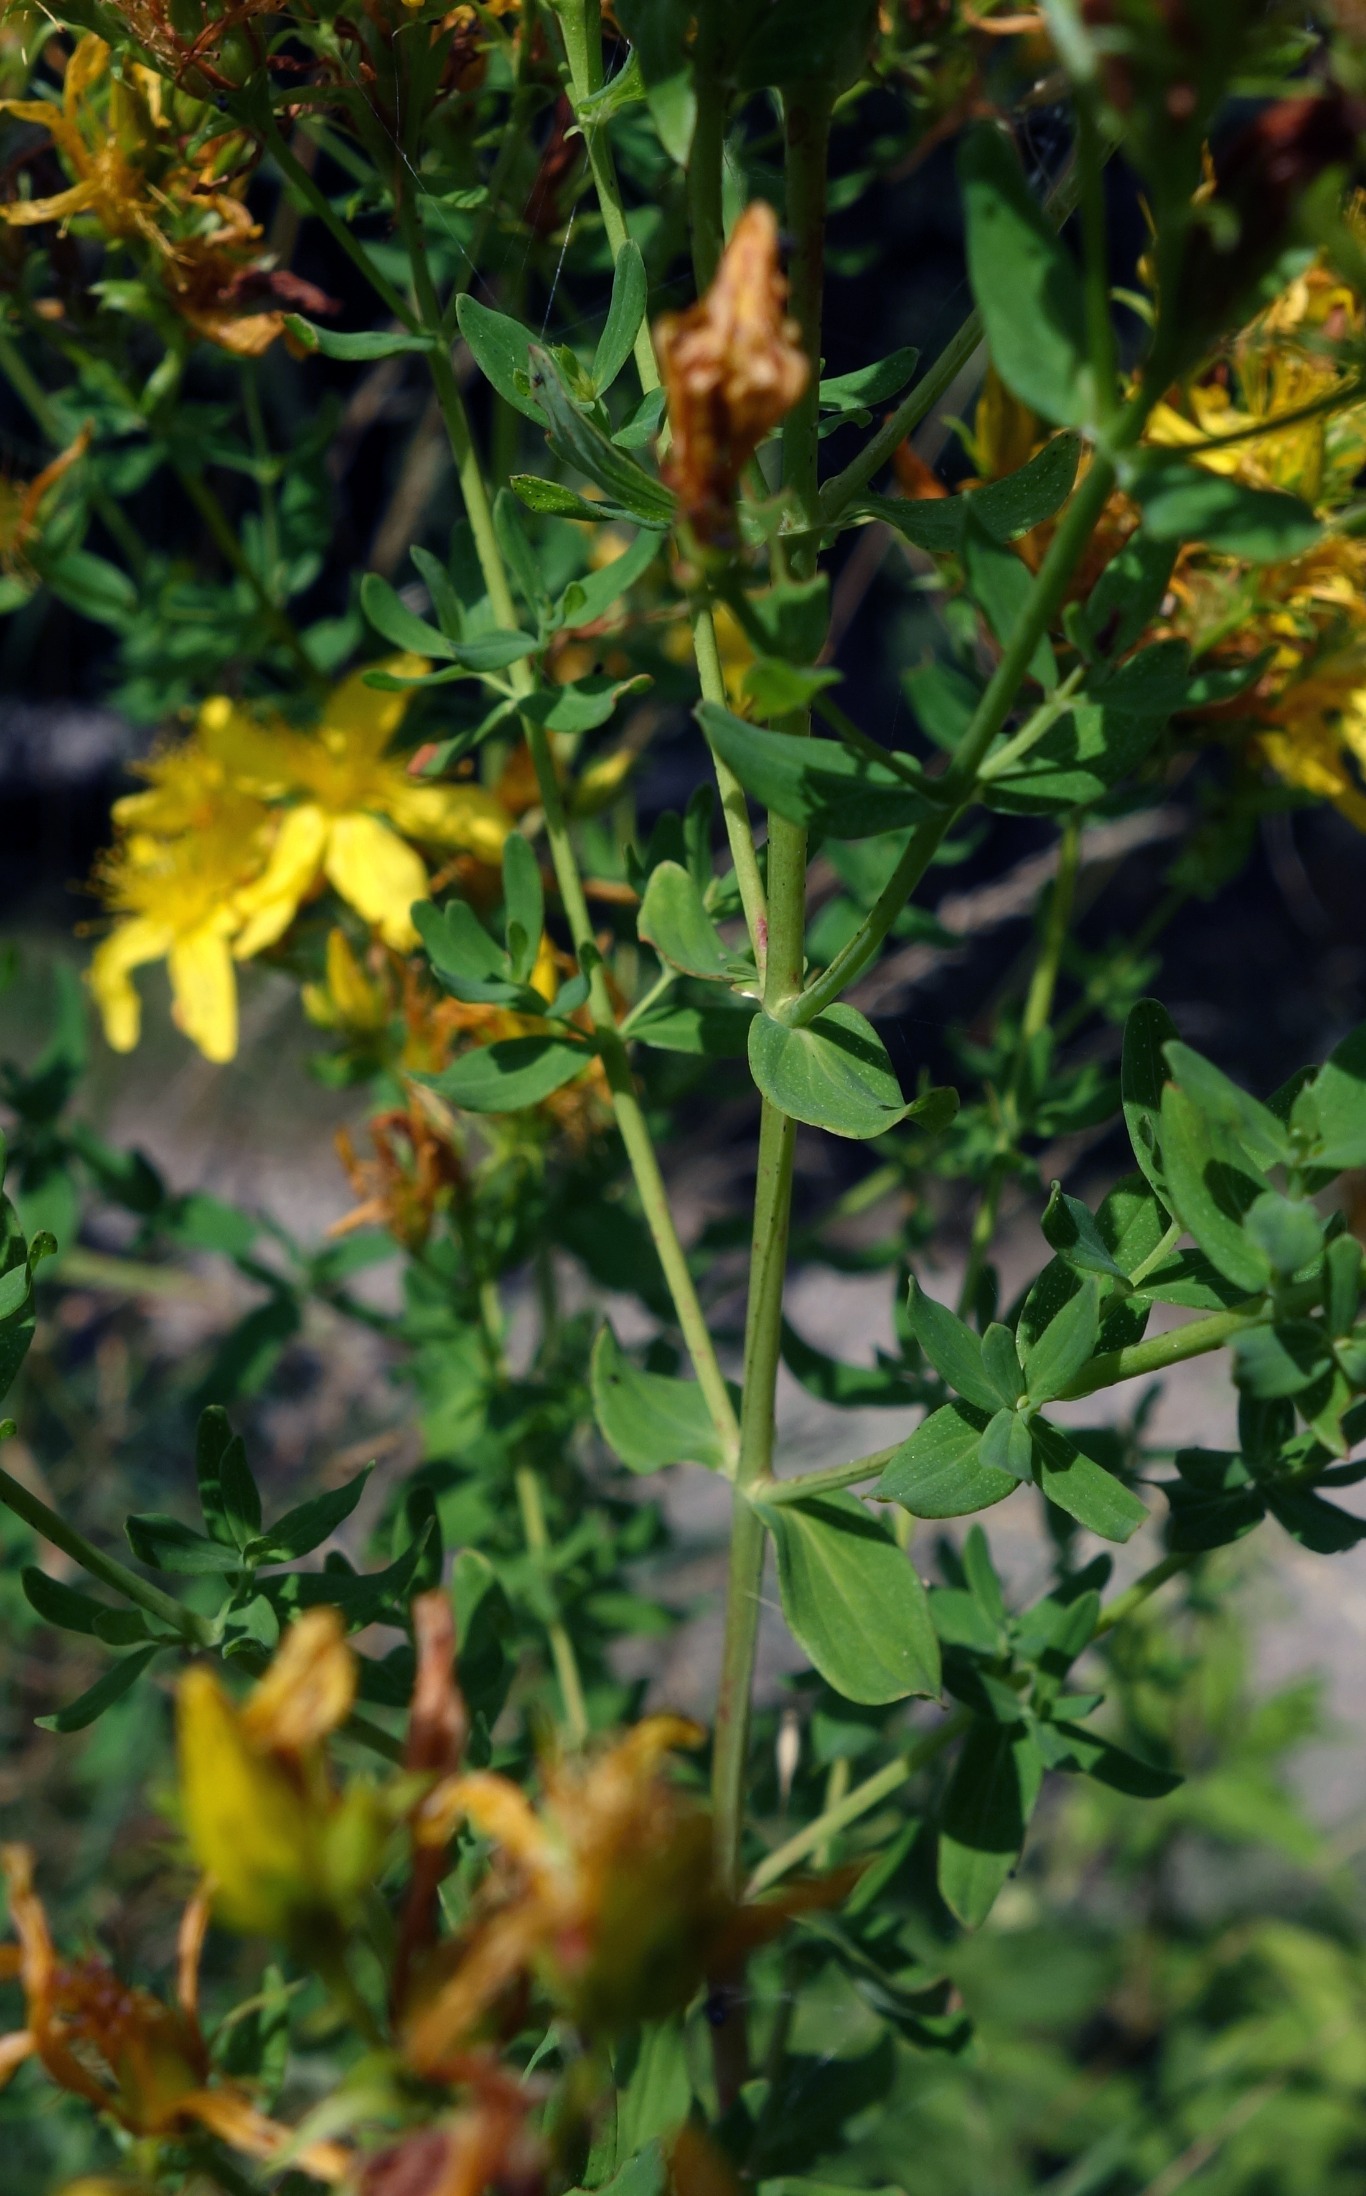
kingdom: Plantae
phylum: Tracheophyta
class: Magnoliopsida
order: Malpighiales
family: Hypericaceae
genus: Hypericum
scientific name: Hypericum perforatum
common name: Prikbladet perikon
